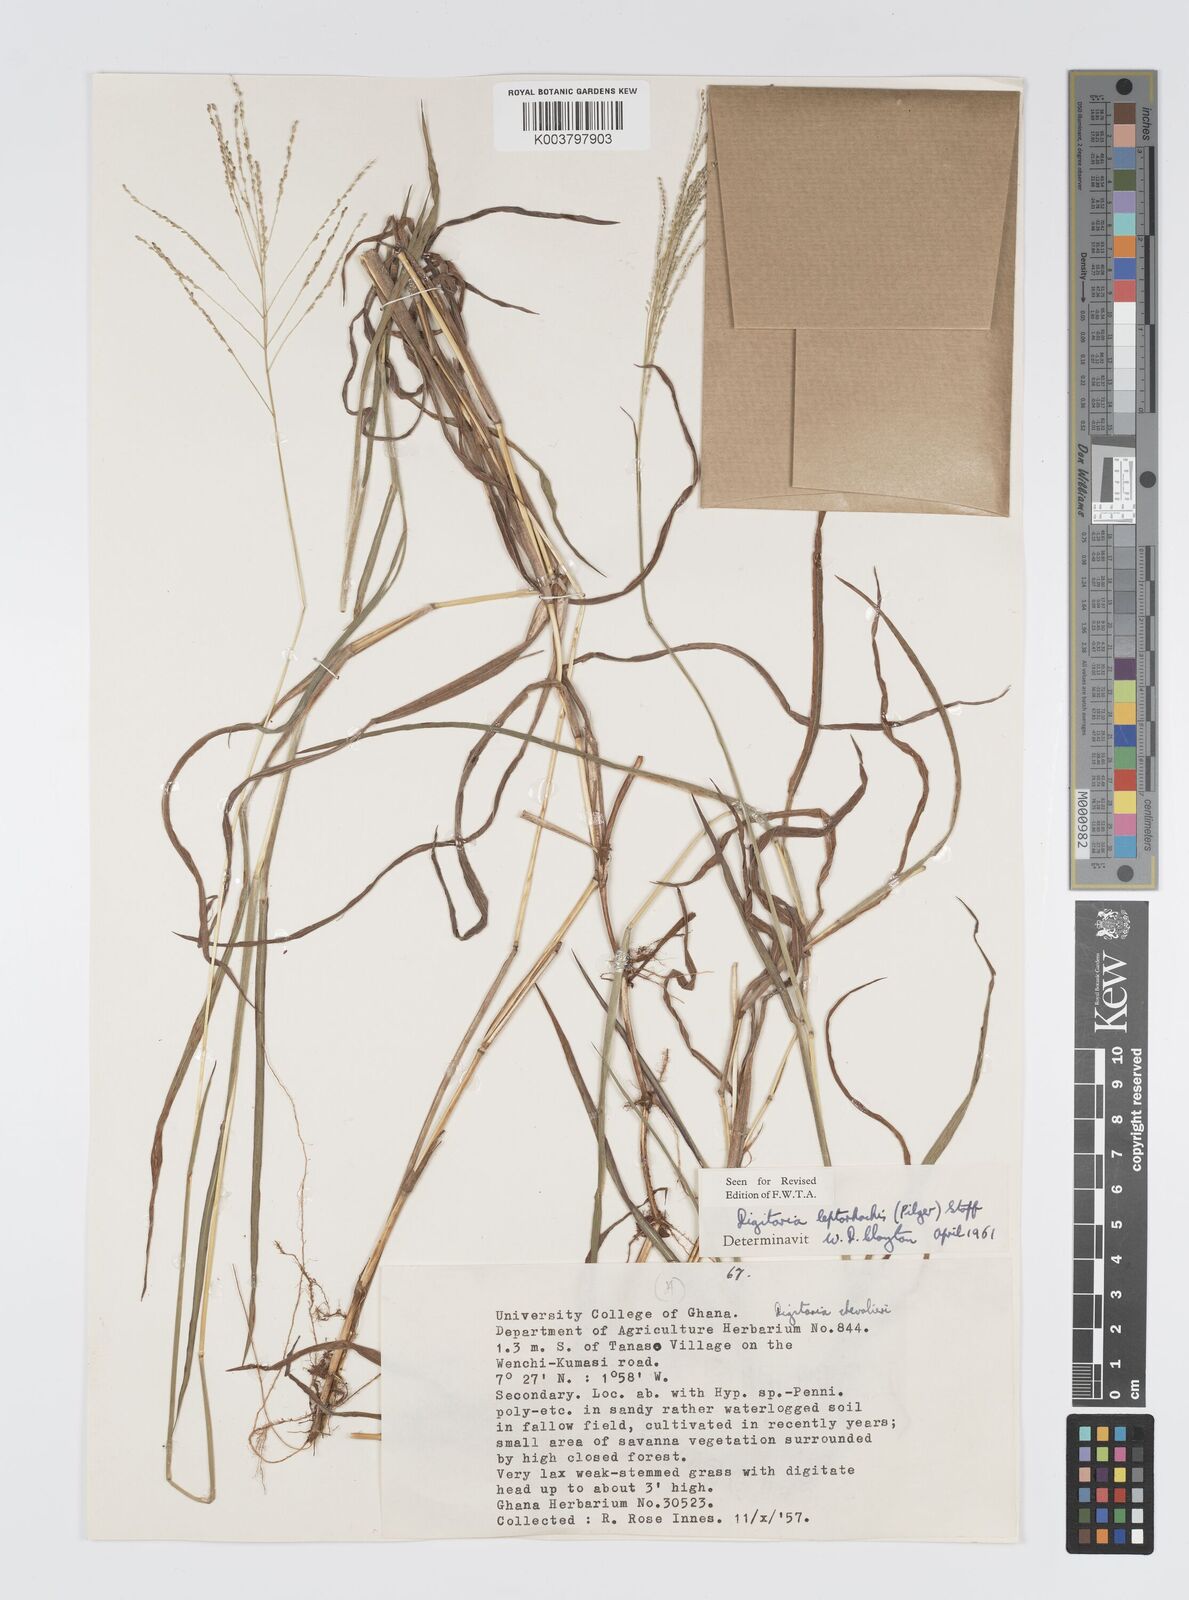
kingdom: Plantae
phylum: Tracheophyta
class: Liliopsida
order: Poales
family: Poaceae
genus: Digitaria
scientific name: Digitaria leptorhachis
